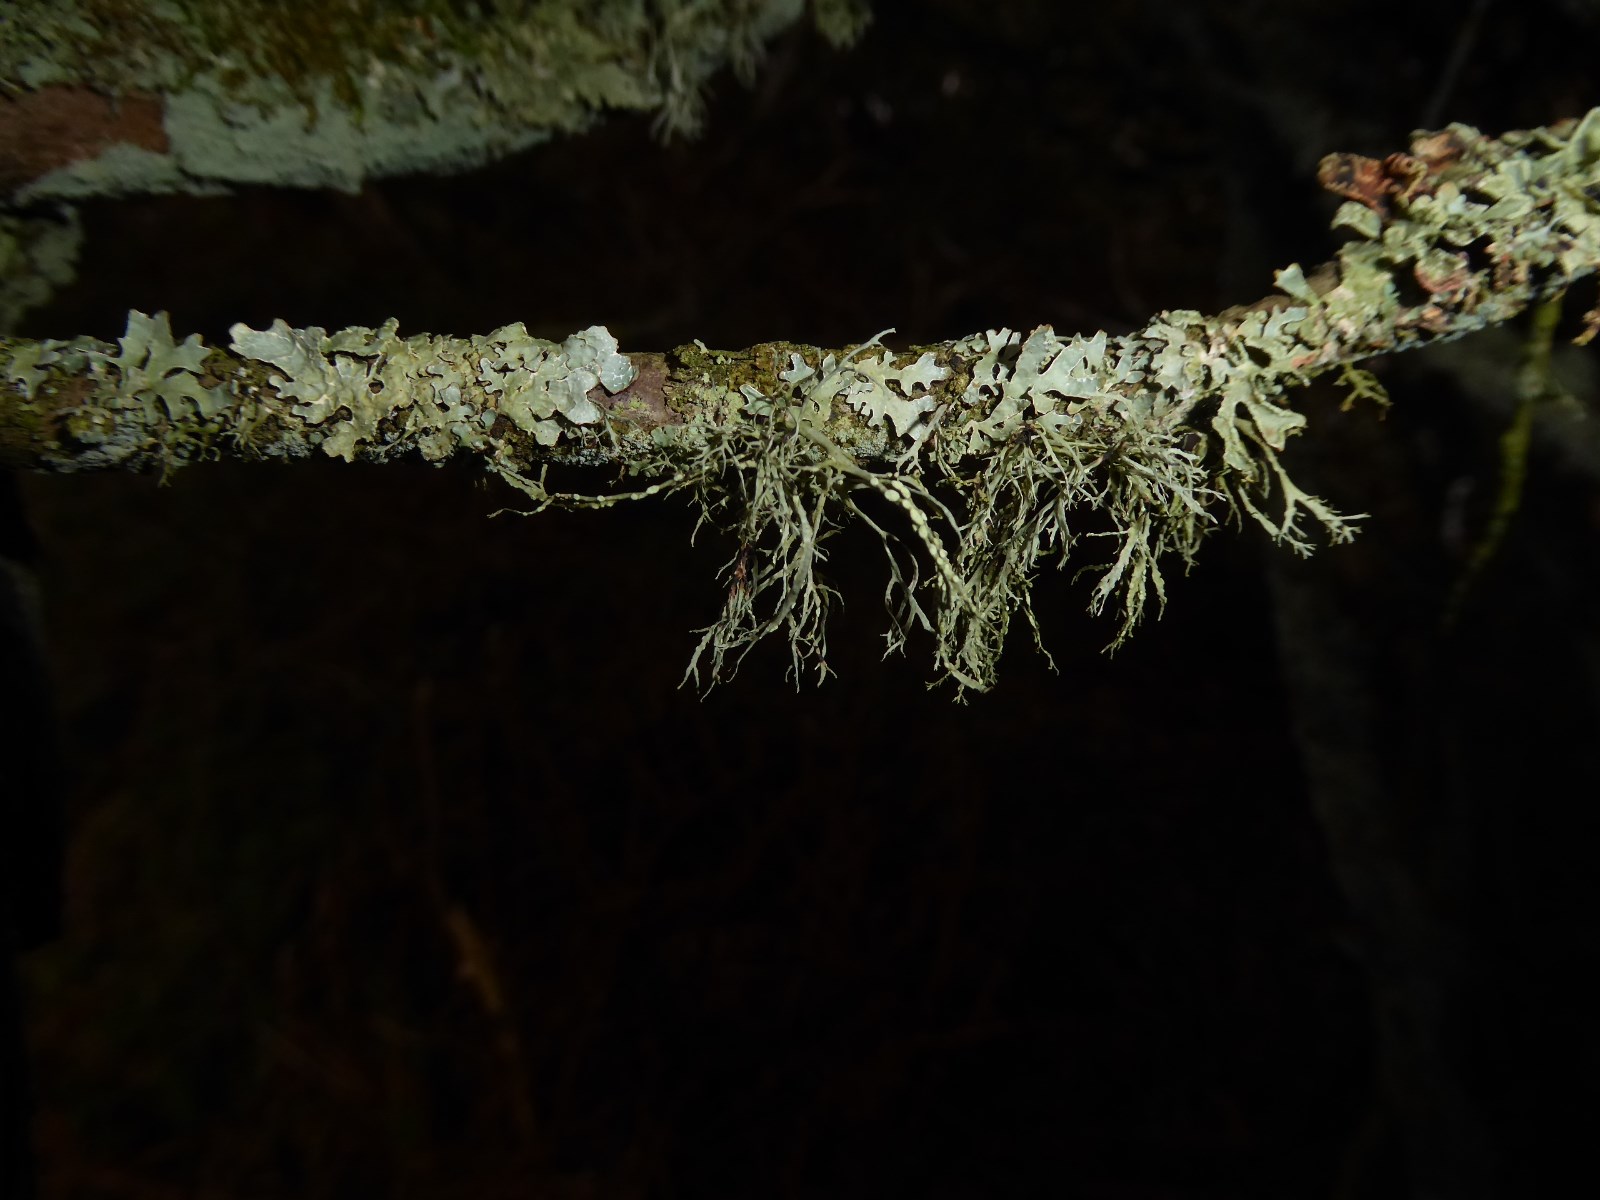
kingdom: Fungi
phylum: Ascomycota
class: Lecanoromycetes
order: Lecanorales
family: Ramalinaceae
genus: Ramalina
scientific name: Ramalina farinacea
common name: melet grenlav
